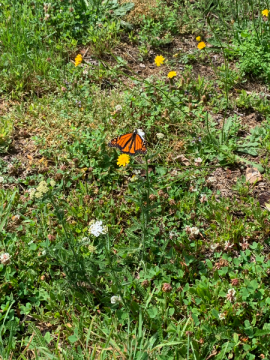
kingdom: Animalia
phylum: Arthropoda
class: Insecta
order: Lepidoptera
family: Nymphalidae
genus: Danaus
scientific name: Danaus plexippus
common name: Monarch
